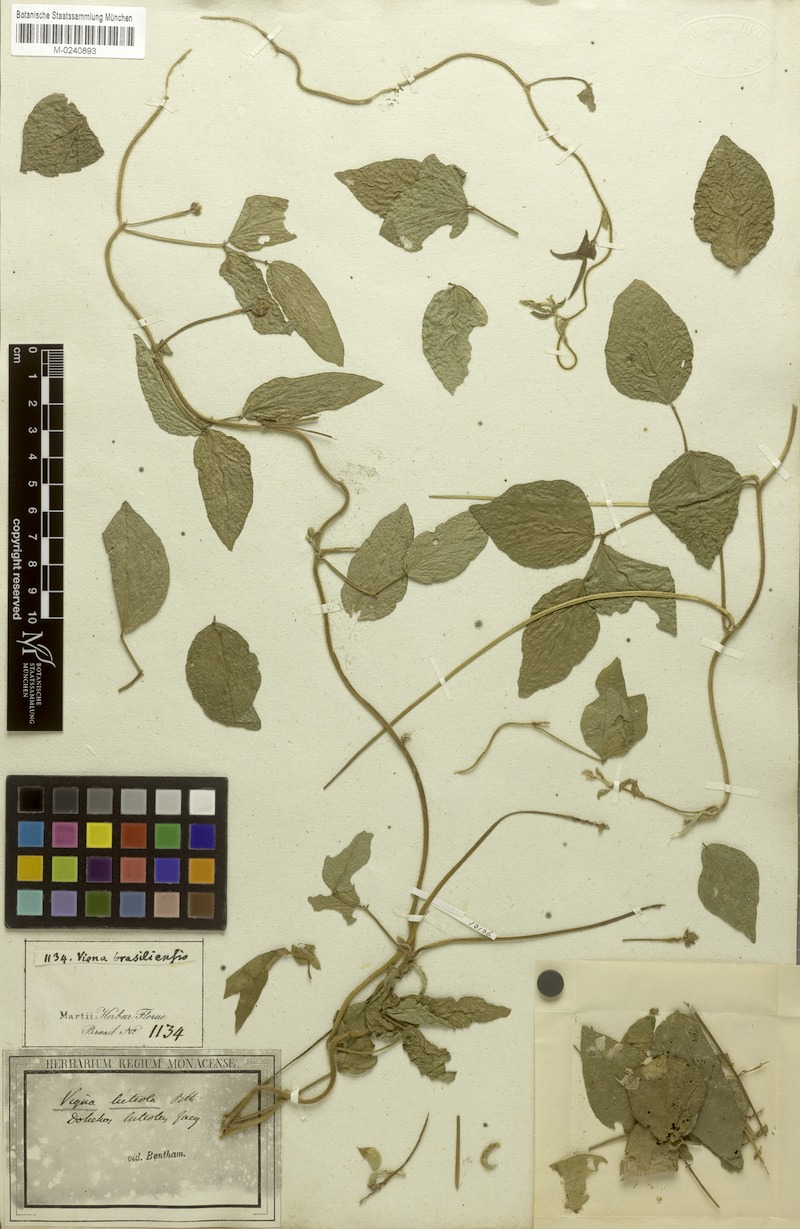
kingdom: Plantae
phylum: Tracheophyta
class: Magnoliopsida
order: Fabales
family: Fabaceae
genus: Vigna
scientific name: Vigna luteola
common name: Hairypod cowpea
